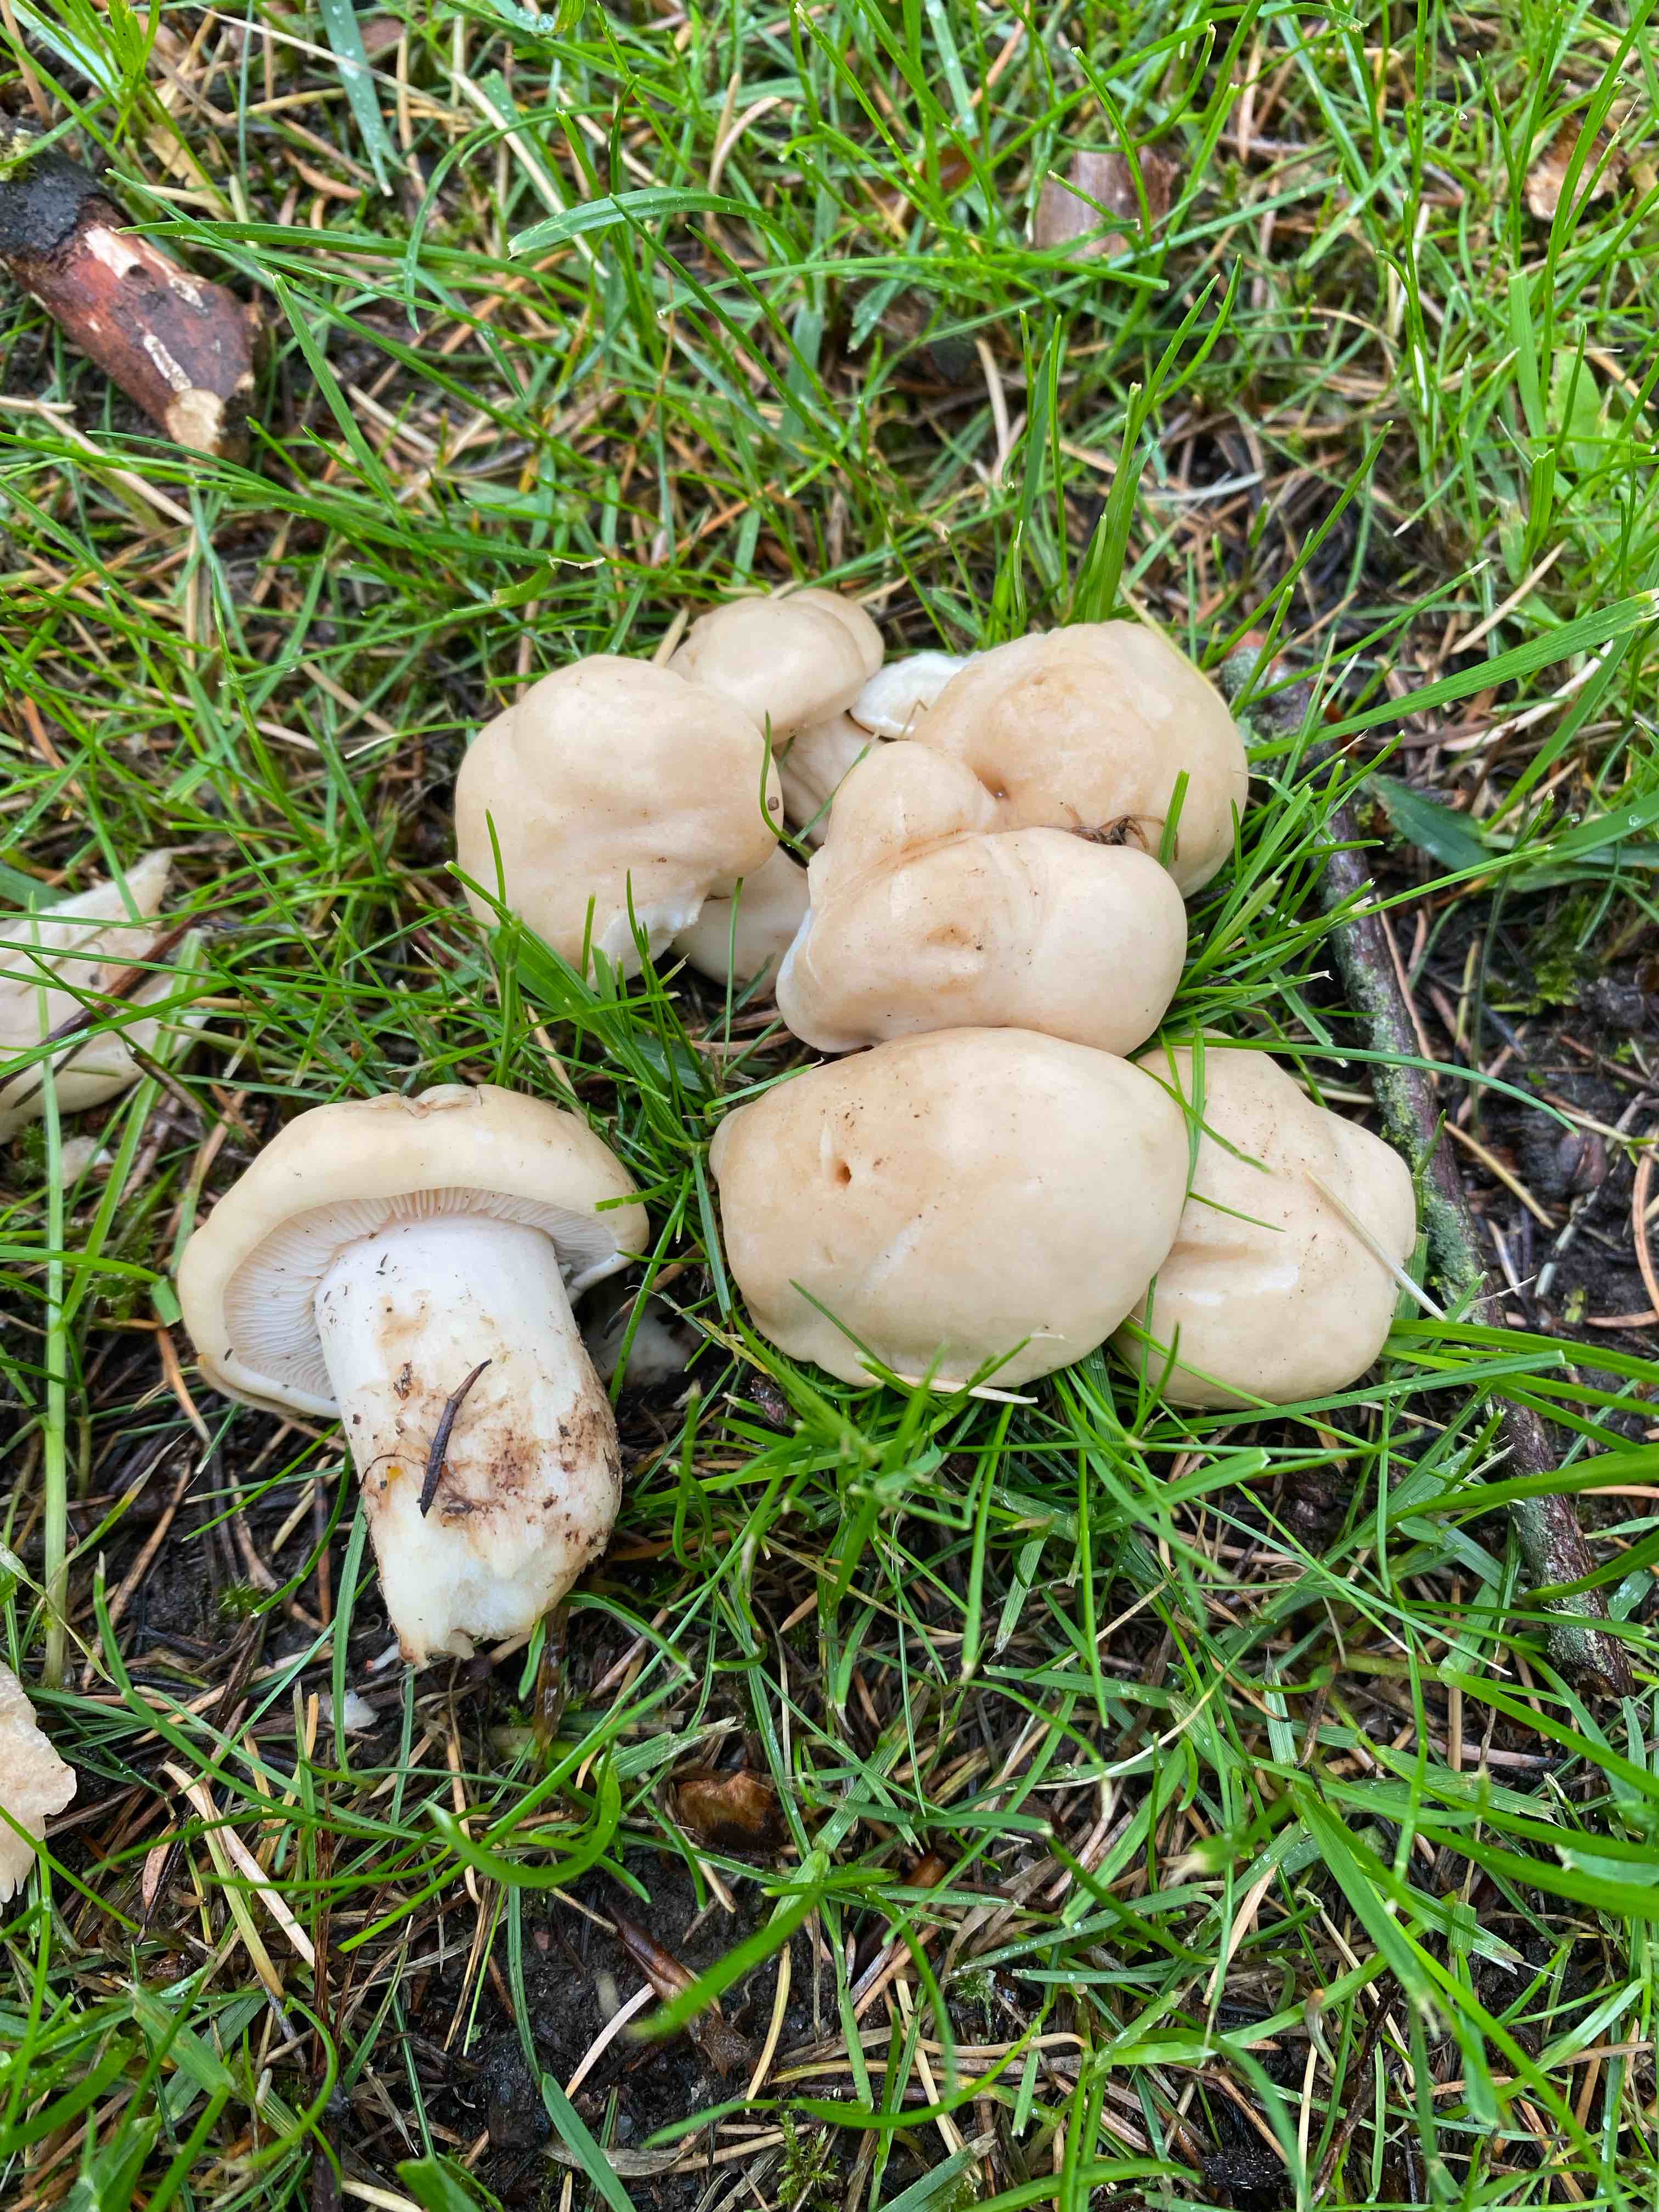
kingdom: Fungi
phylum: Basidiomycota
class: Agaricomycetes
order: Agaricales
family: Lyophyllaceae
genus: Calocybe
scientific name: Calocybe gambosa
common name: vårmusseron
